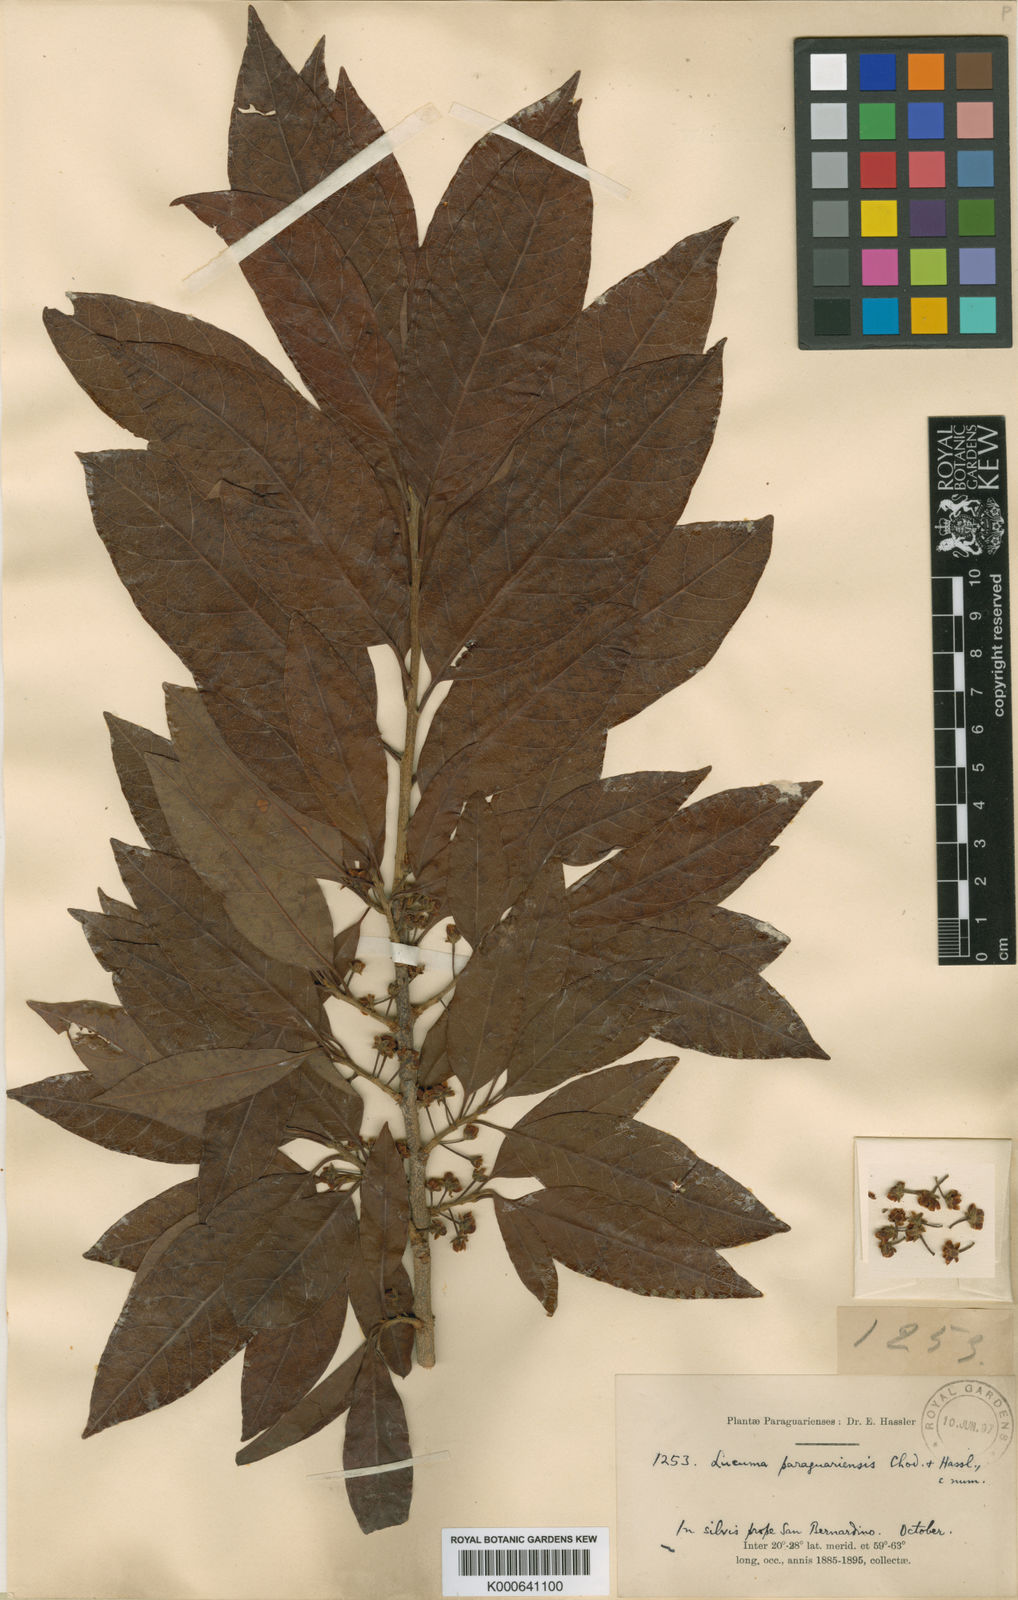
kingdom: Plantae
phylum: Tracheophyta
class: Magnoliopsida
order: Ericales
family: Sapotaceae
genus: Pouteria
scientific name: Pouteria gardneri
